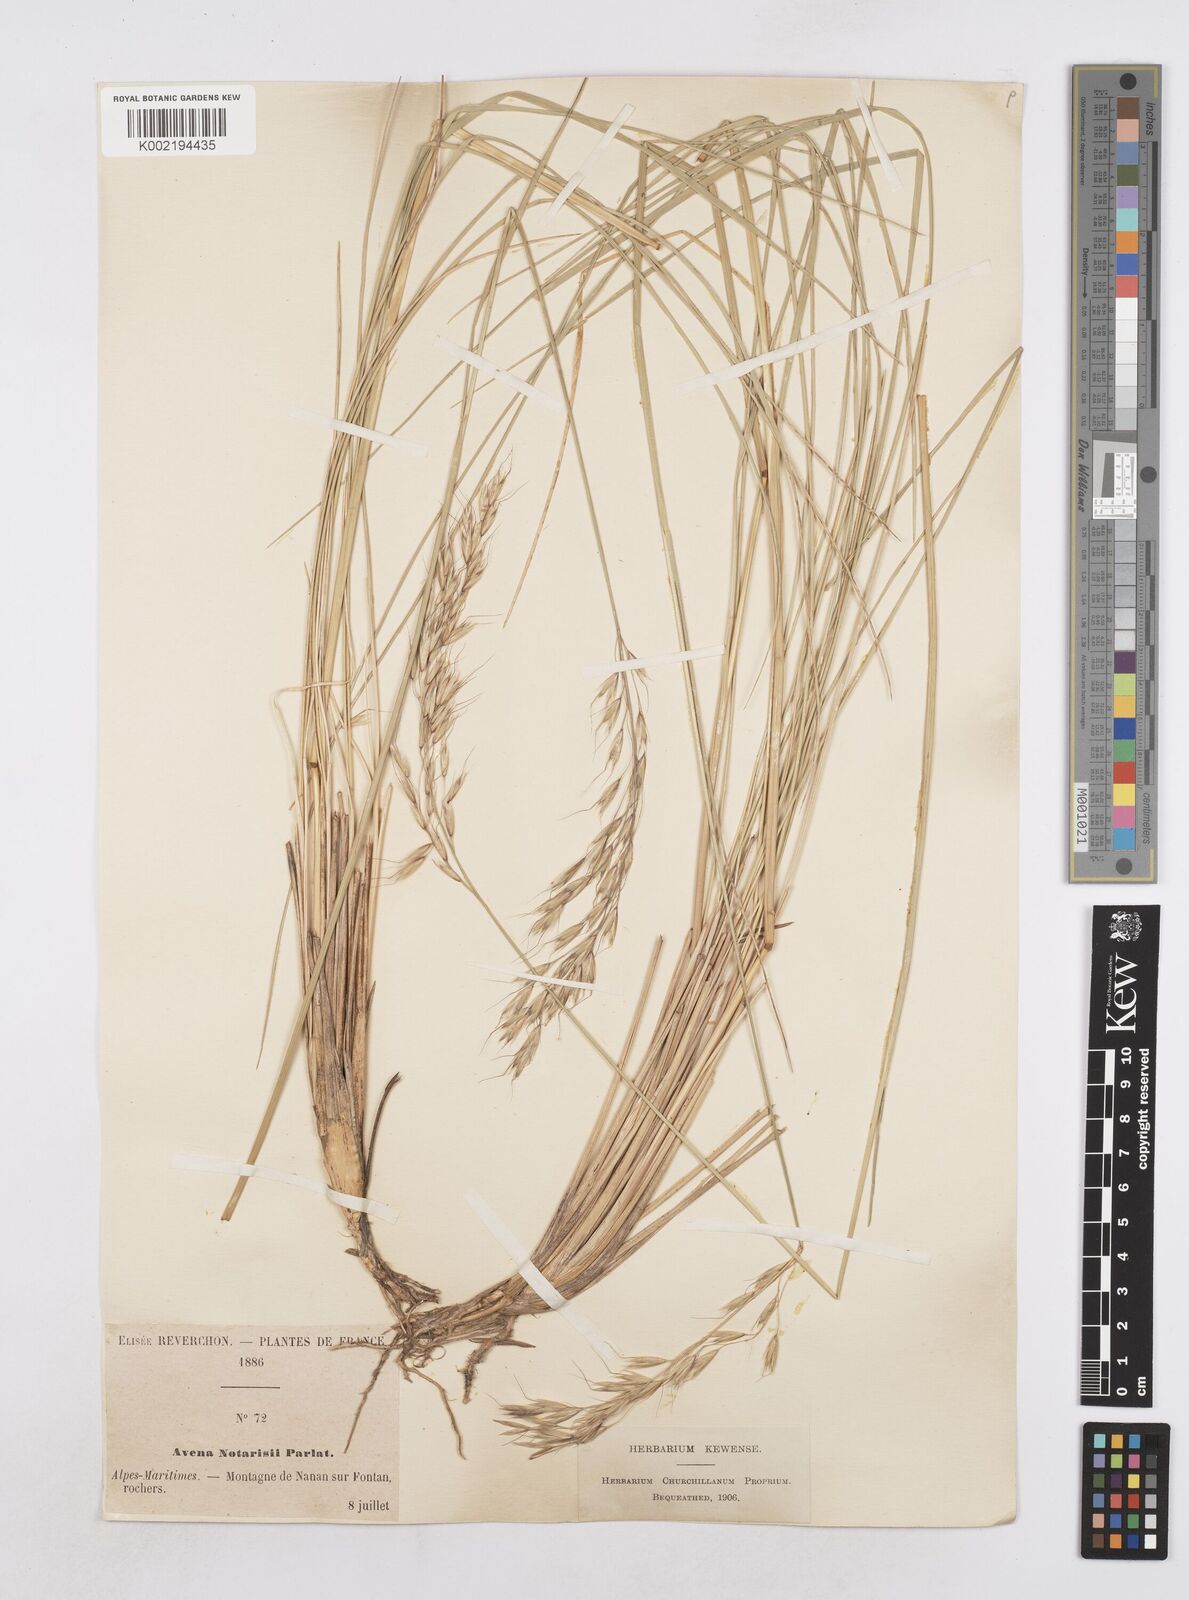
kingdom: Plantae
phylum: Tracheophyta
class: Liliopsida
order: Poales
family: Poaceae
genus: Helictotrichon
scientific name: Helictotrichon sempervirens
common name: Blue oat-grass
